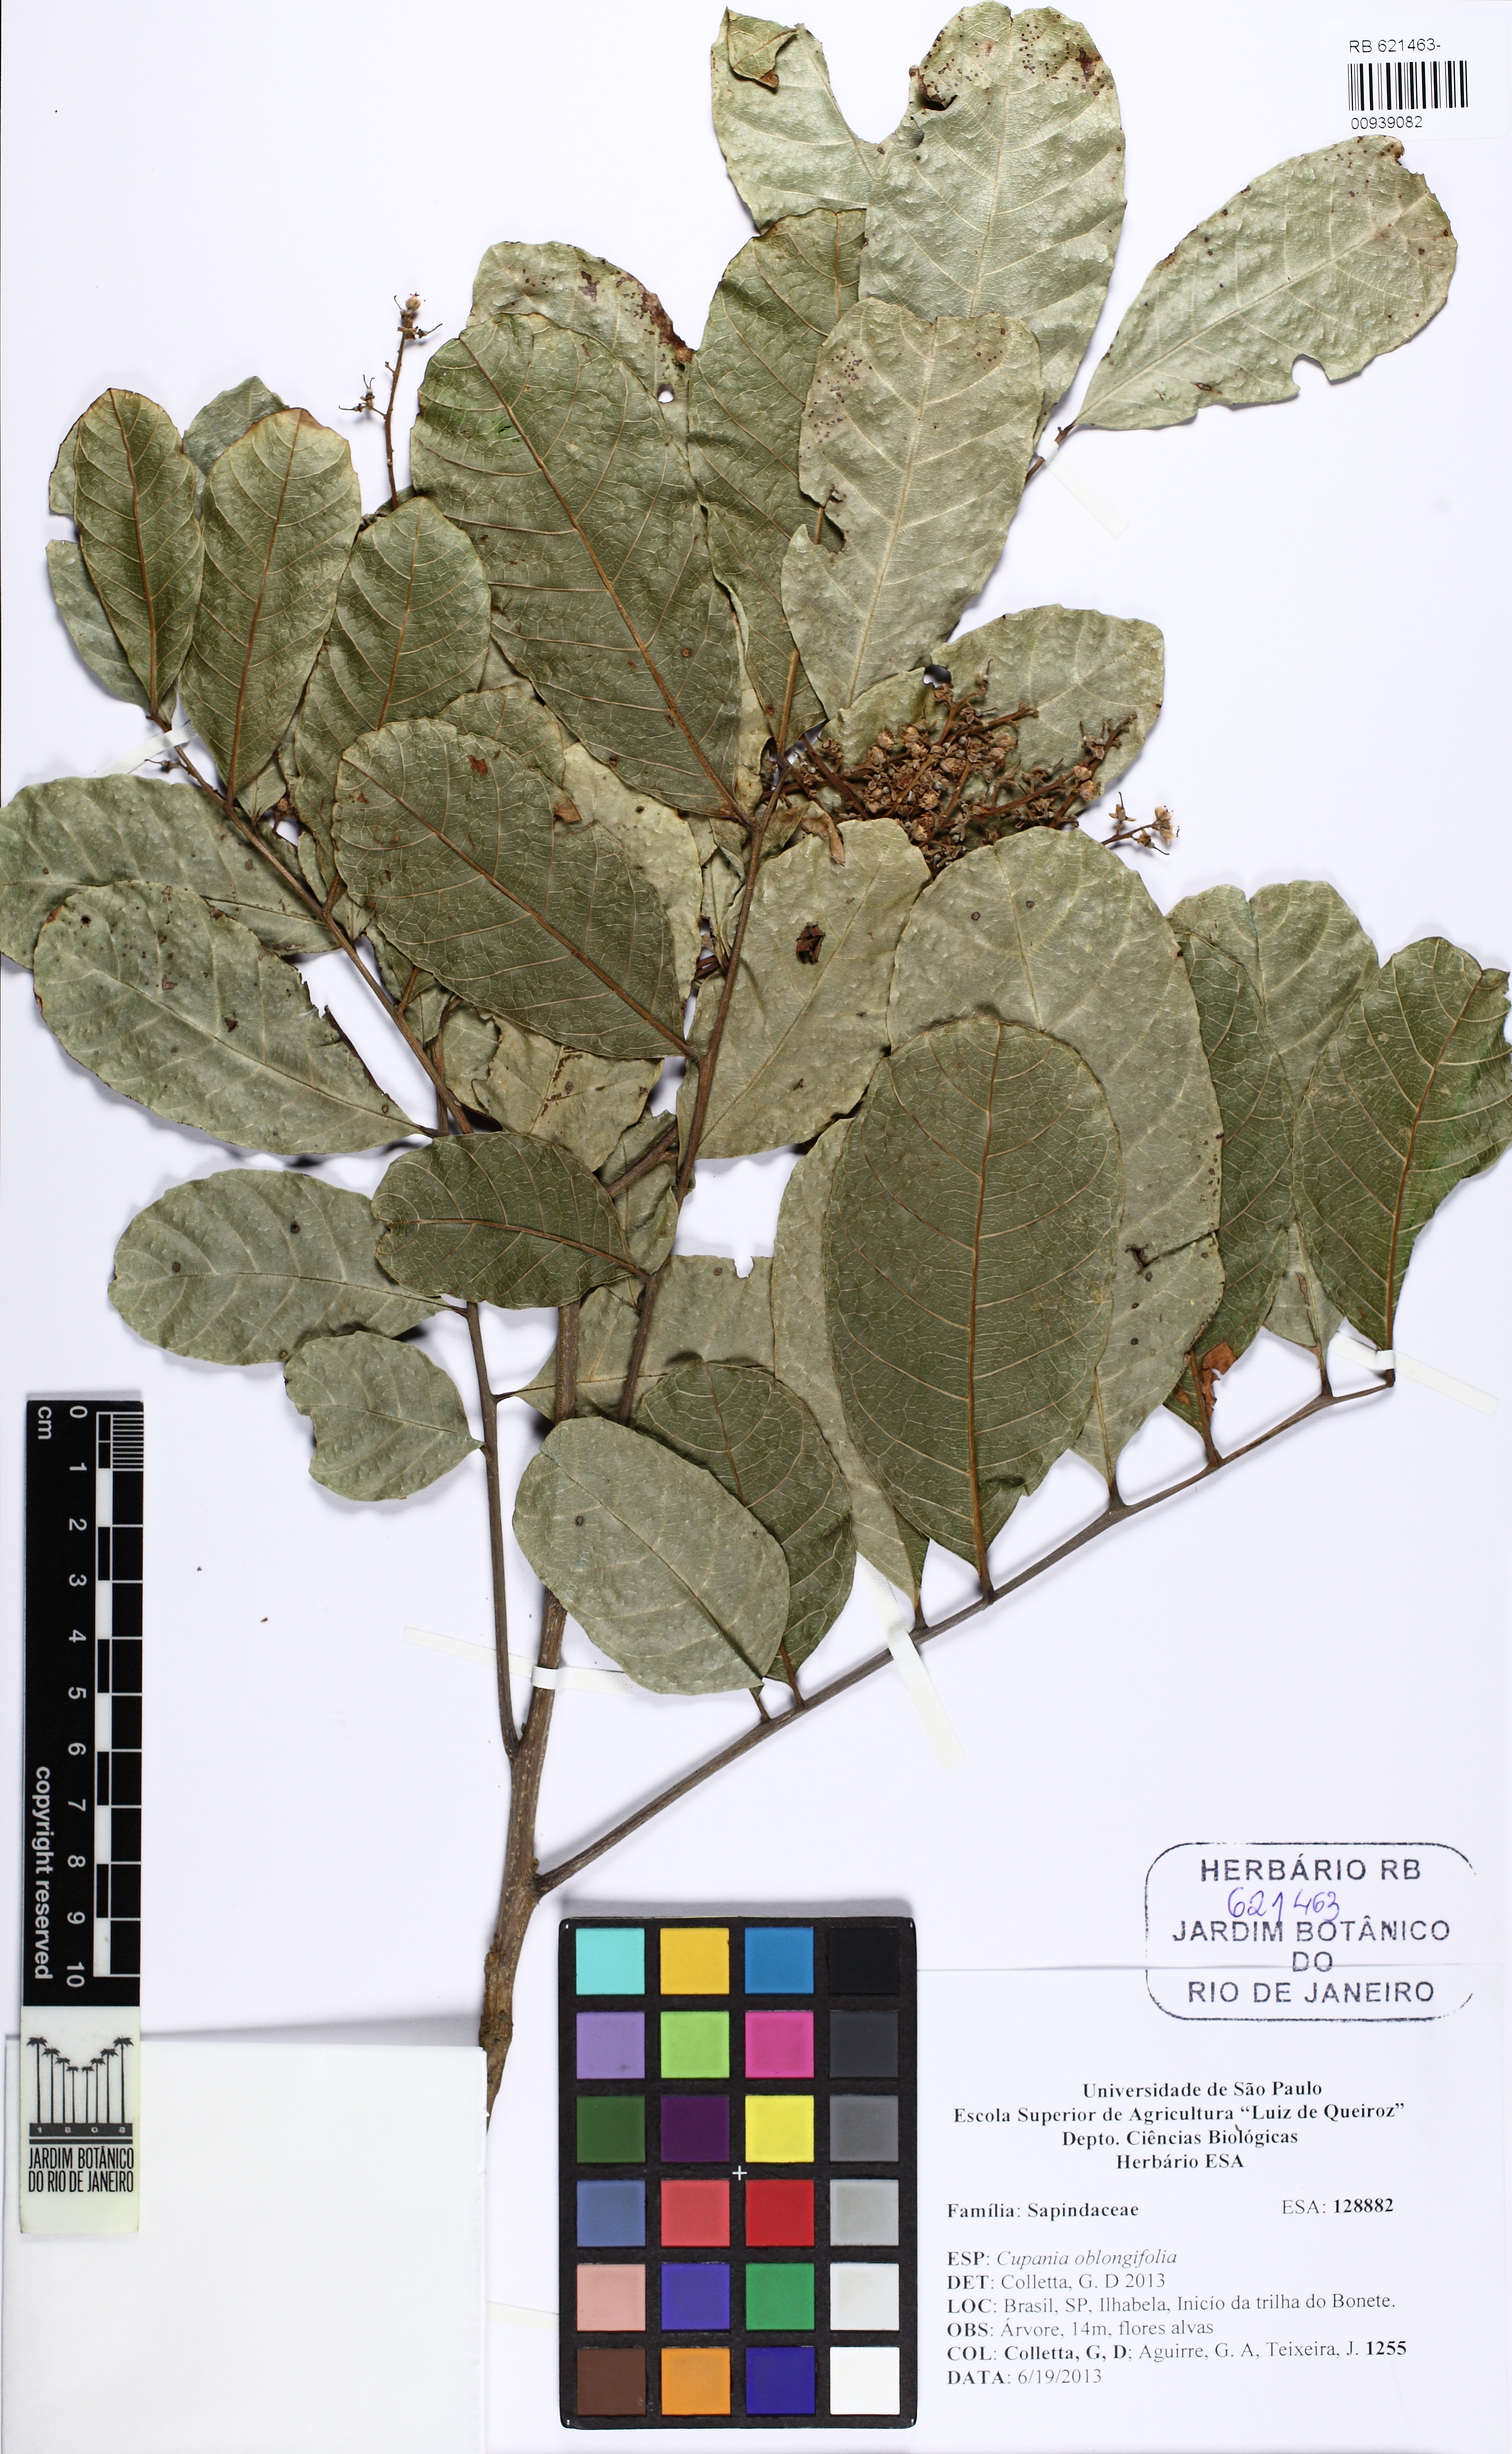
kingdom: Plantae
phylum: Tracheophyta
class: Magnoliopsida
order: Sapindales
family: Sapindaceae
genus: Cupania
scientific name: Cupania oblongifolia
